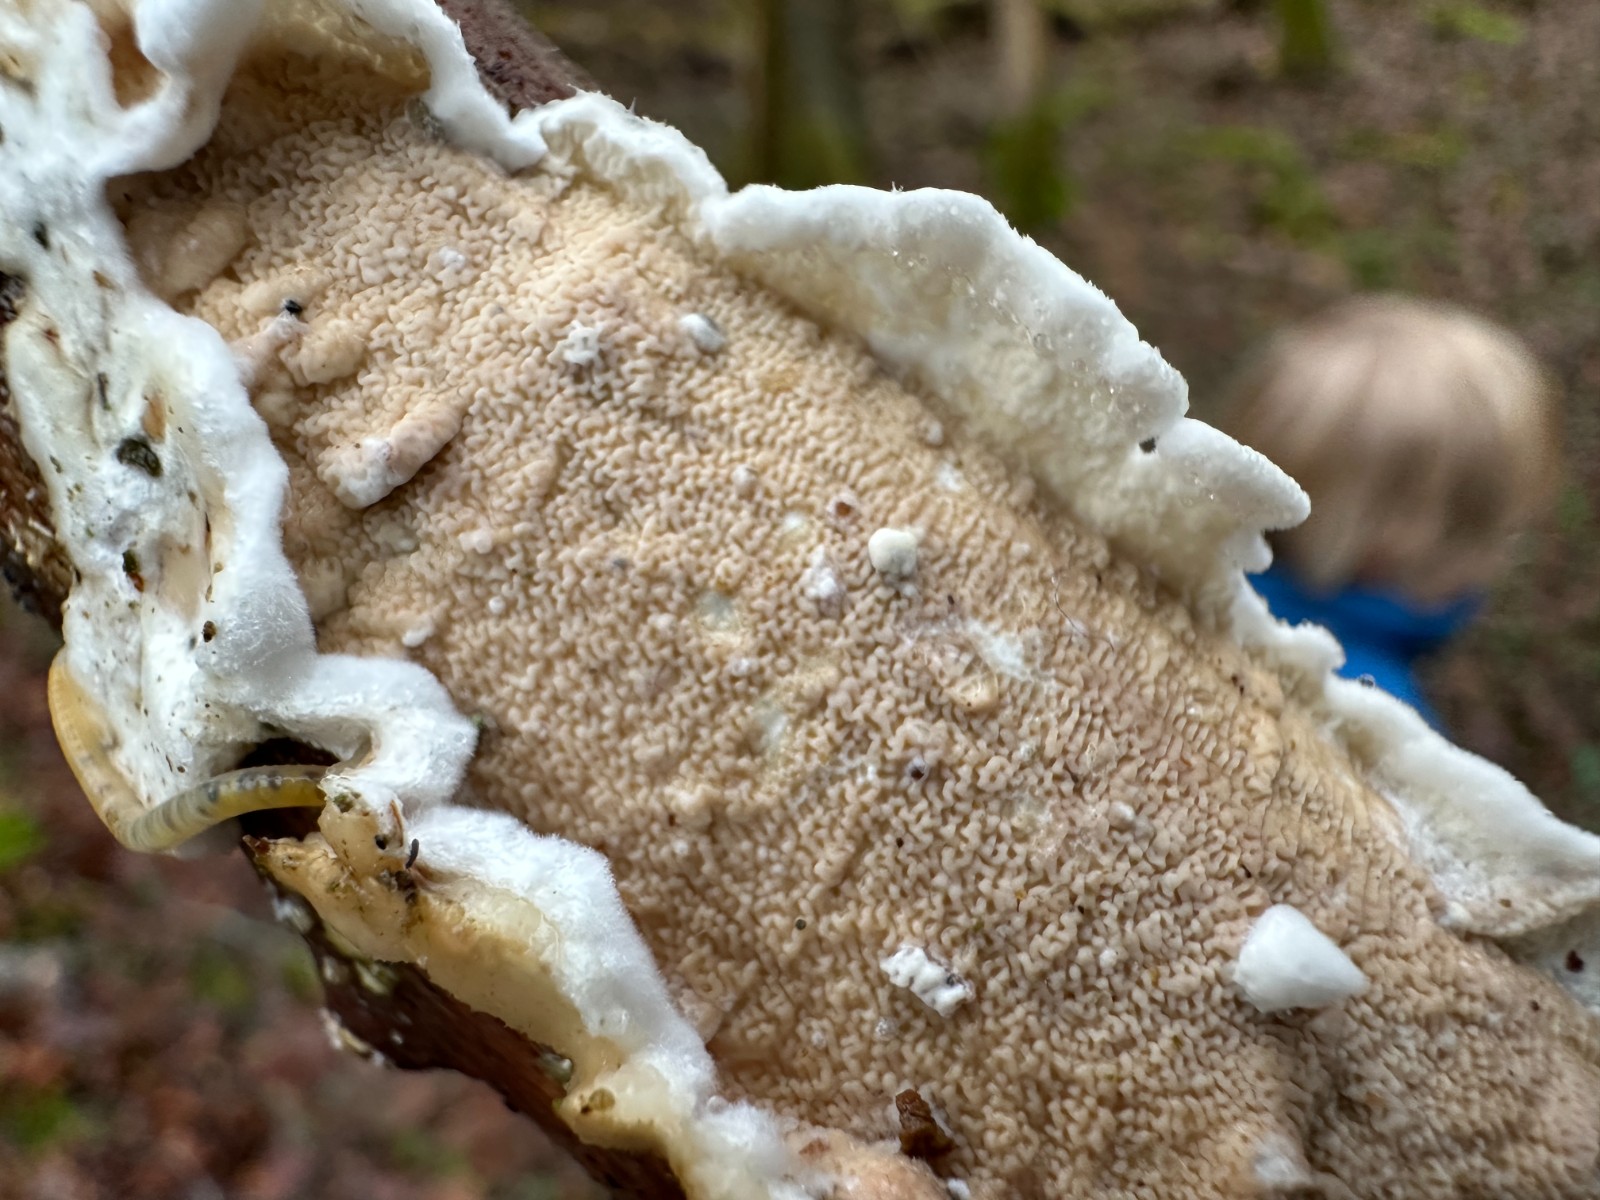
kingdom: Fungi
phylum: Basidiomycota
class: Agaricomycetes
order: Polyporales
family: Irpicaceae
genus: Byssomerulius
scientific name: Byssomerulius corium
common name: læder-åresvamp
